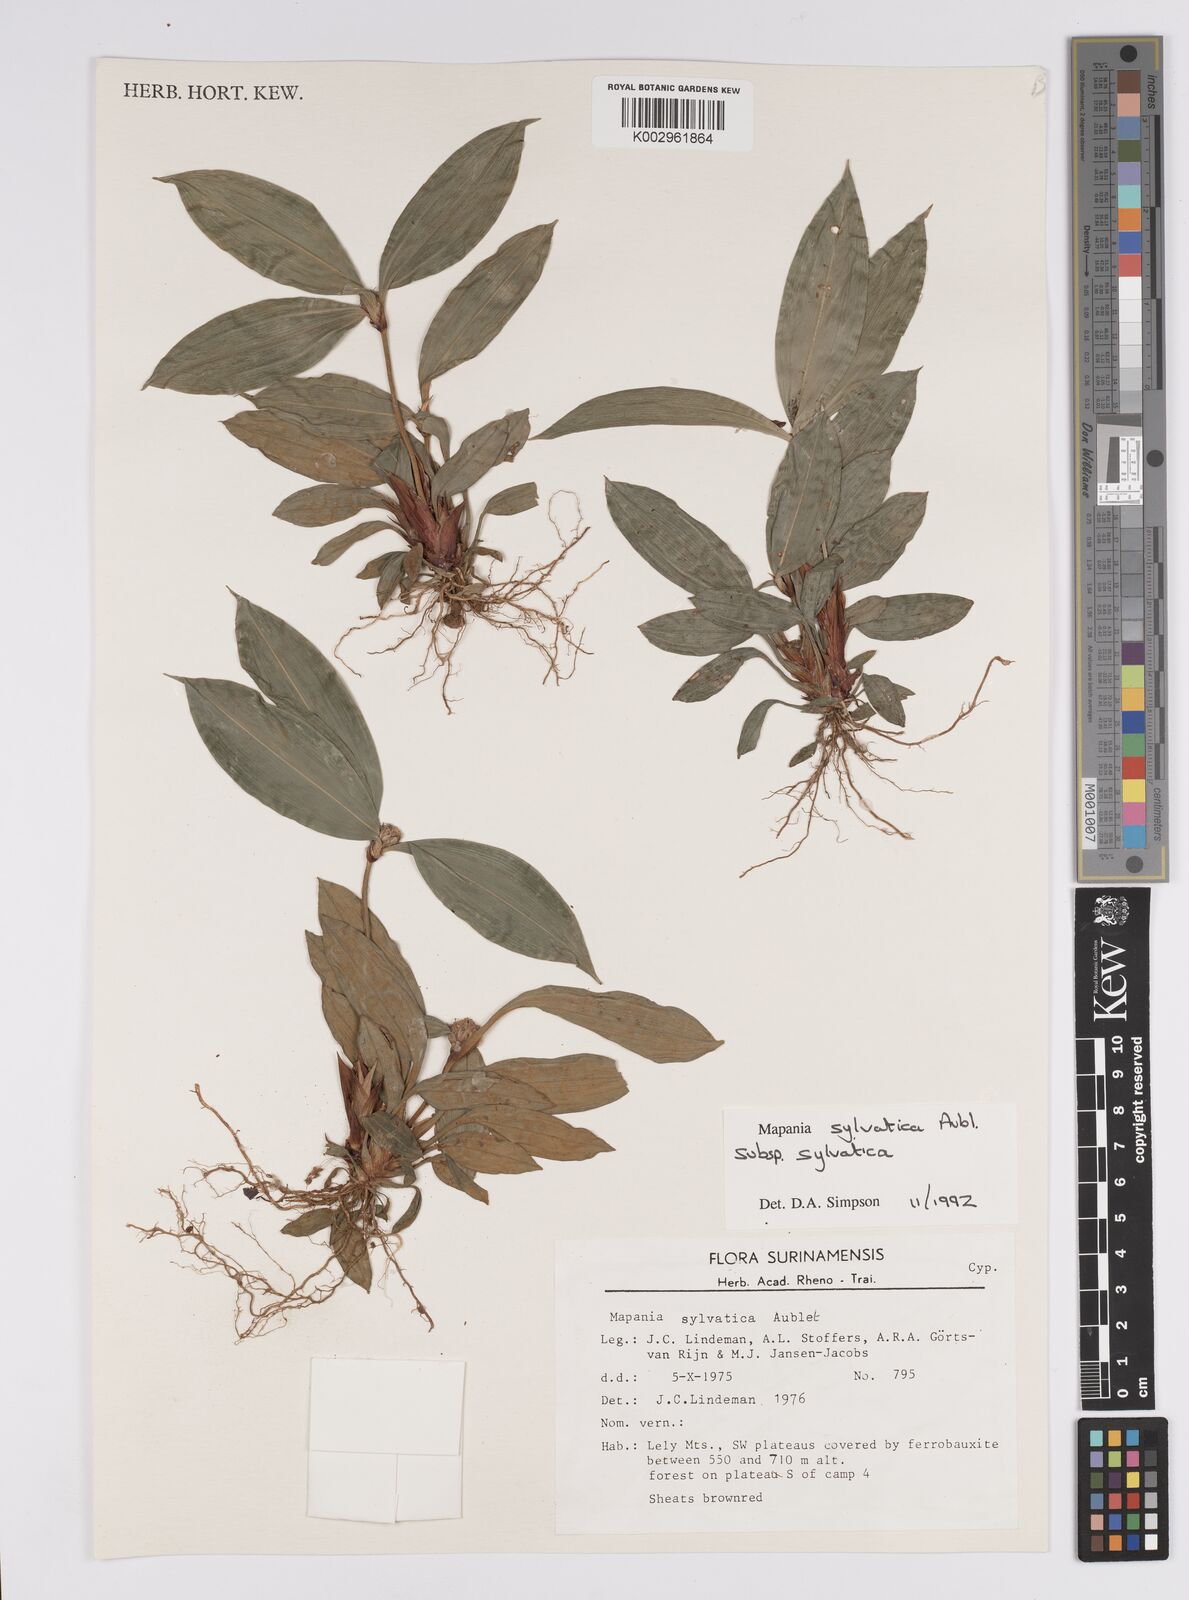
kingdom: Plantae
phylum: Tracheophyta
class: Liliopsida
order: Poales
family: Cyperaceae
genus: Mapania
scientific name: Mapania sylvatica
